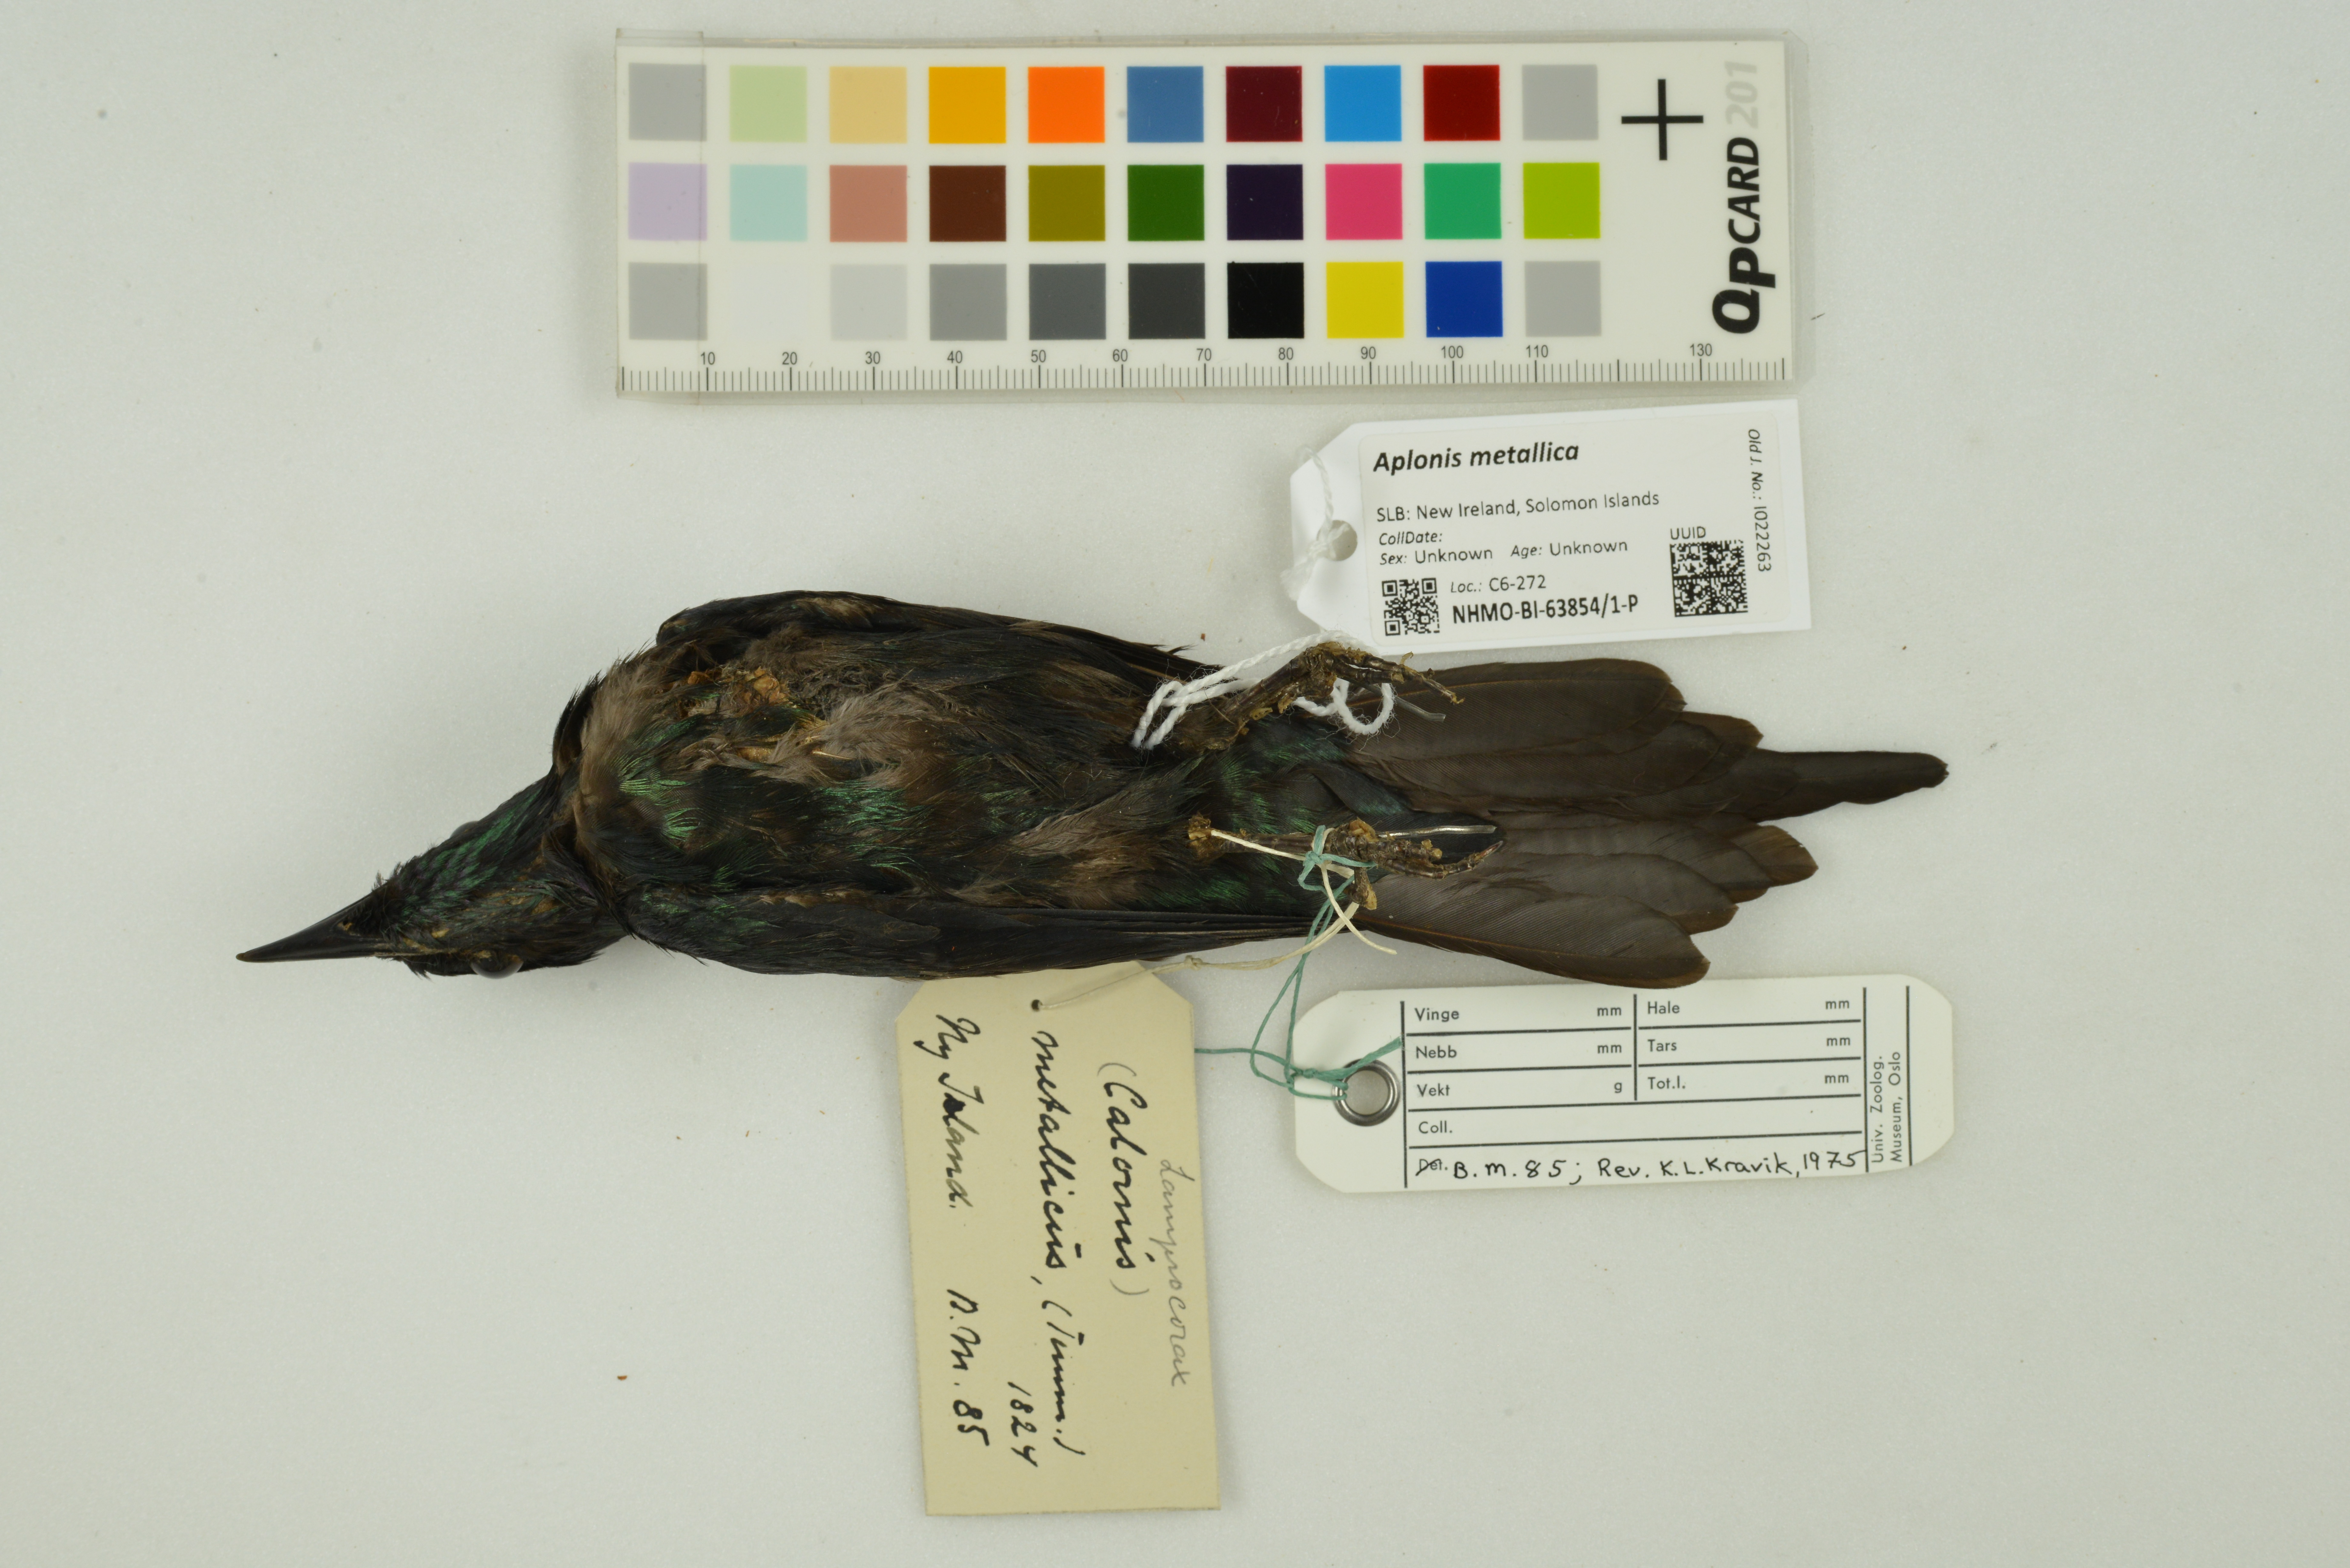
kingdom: Animalia
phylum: Chordata
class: Aves
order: Passeriformes
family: Sturnidae
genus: Aplonis
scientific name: Aplonis metallica
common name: Metallic starling
